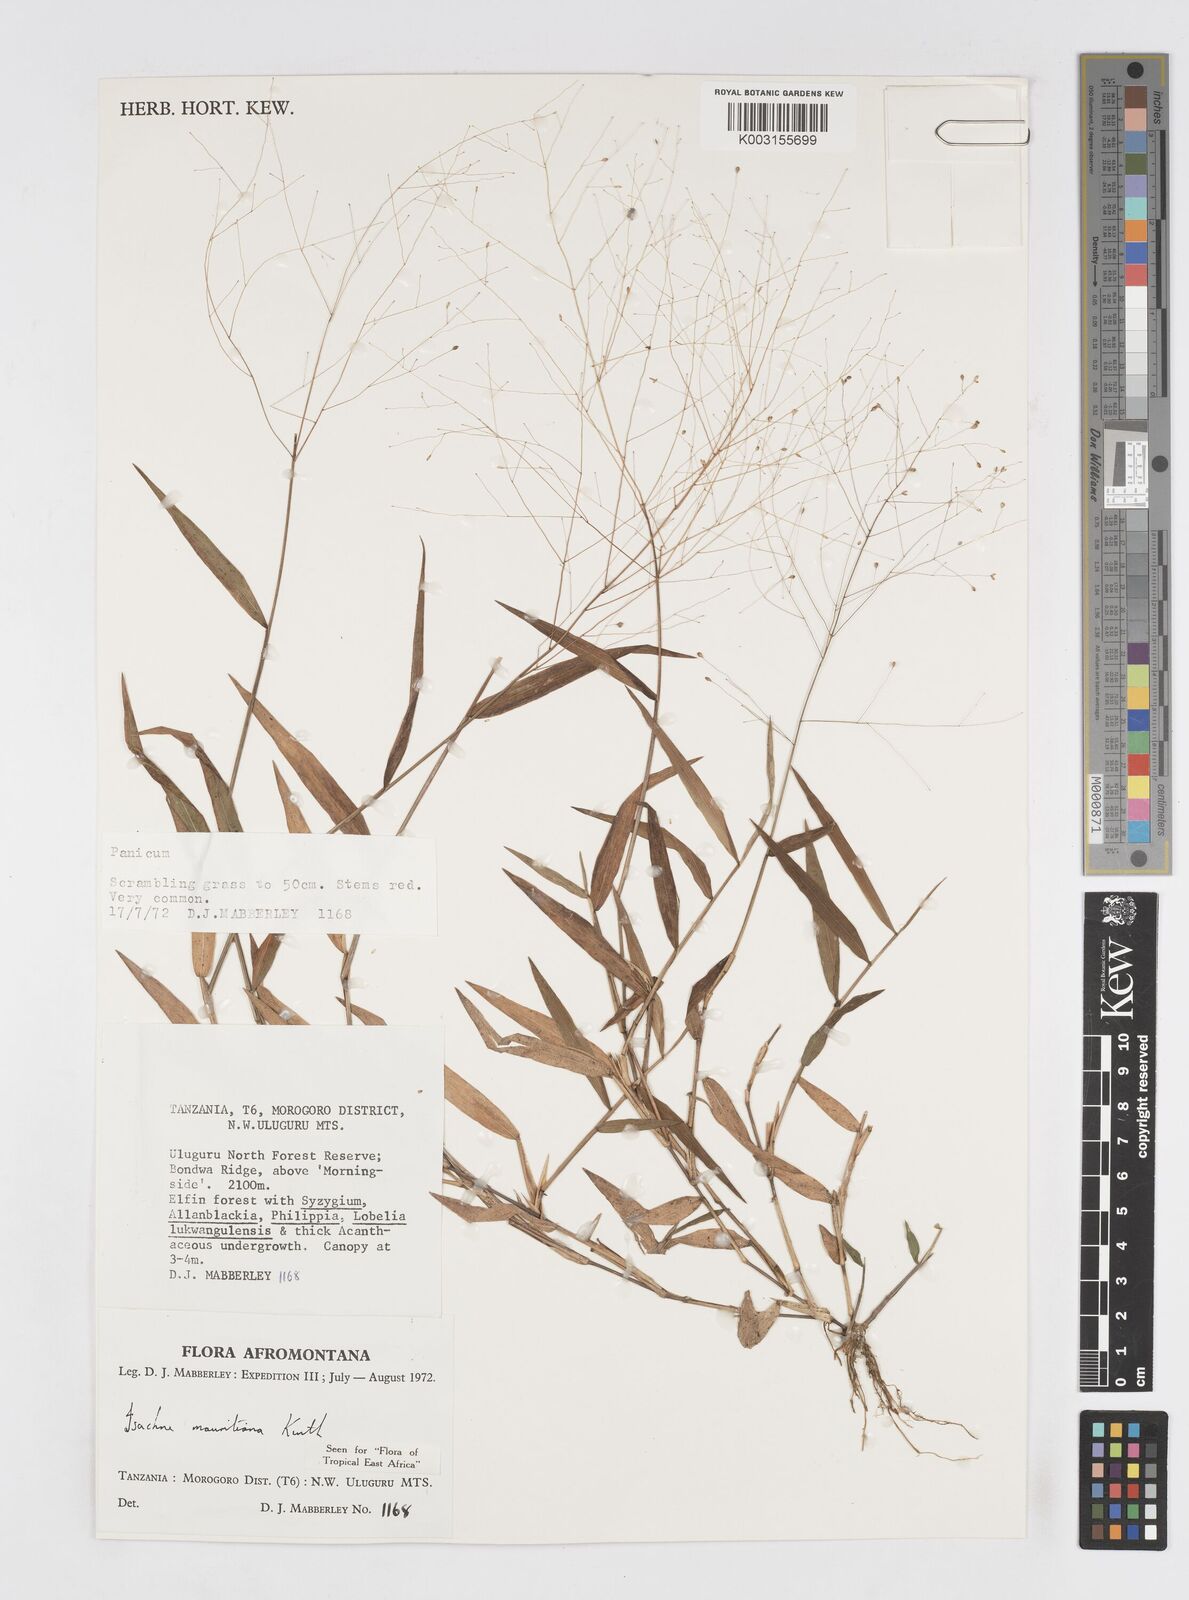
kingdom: Plantae
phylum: Tracheophyta
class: Liliopsida
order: Poales
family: Poaceae
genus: Isachne
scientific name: Isachne mauritiana
